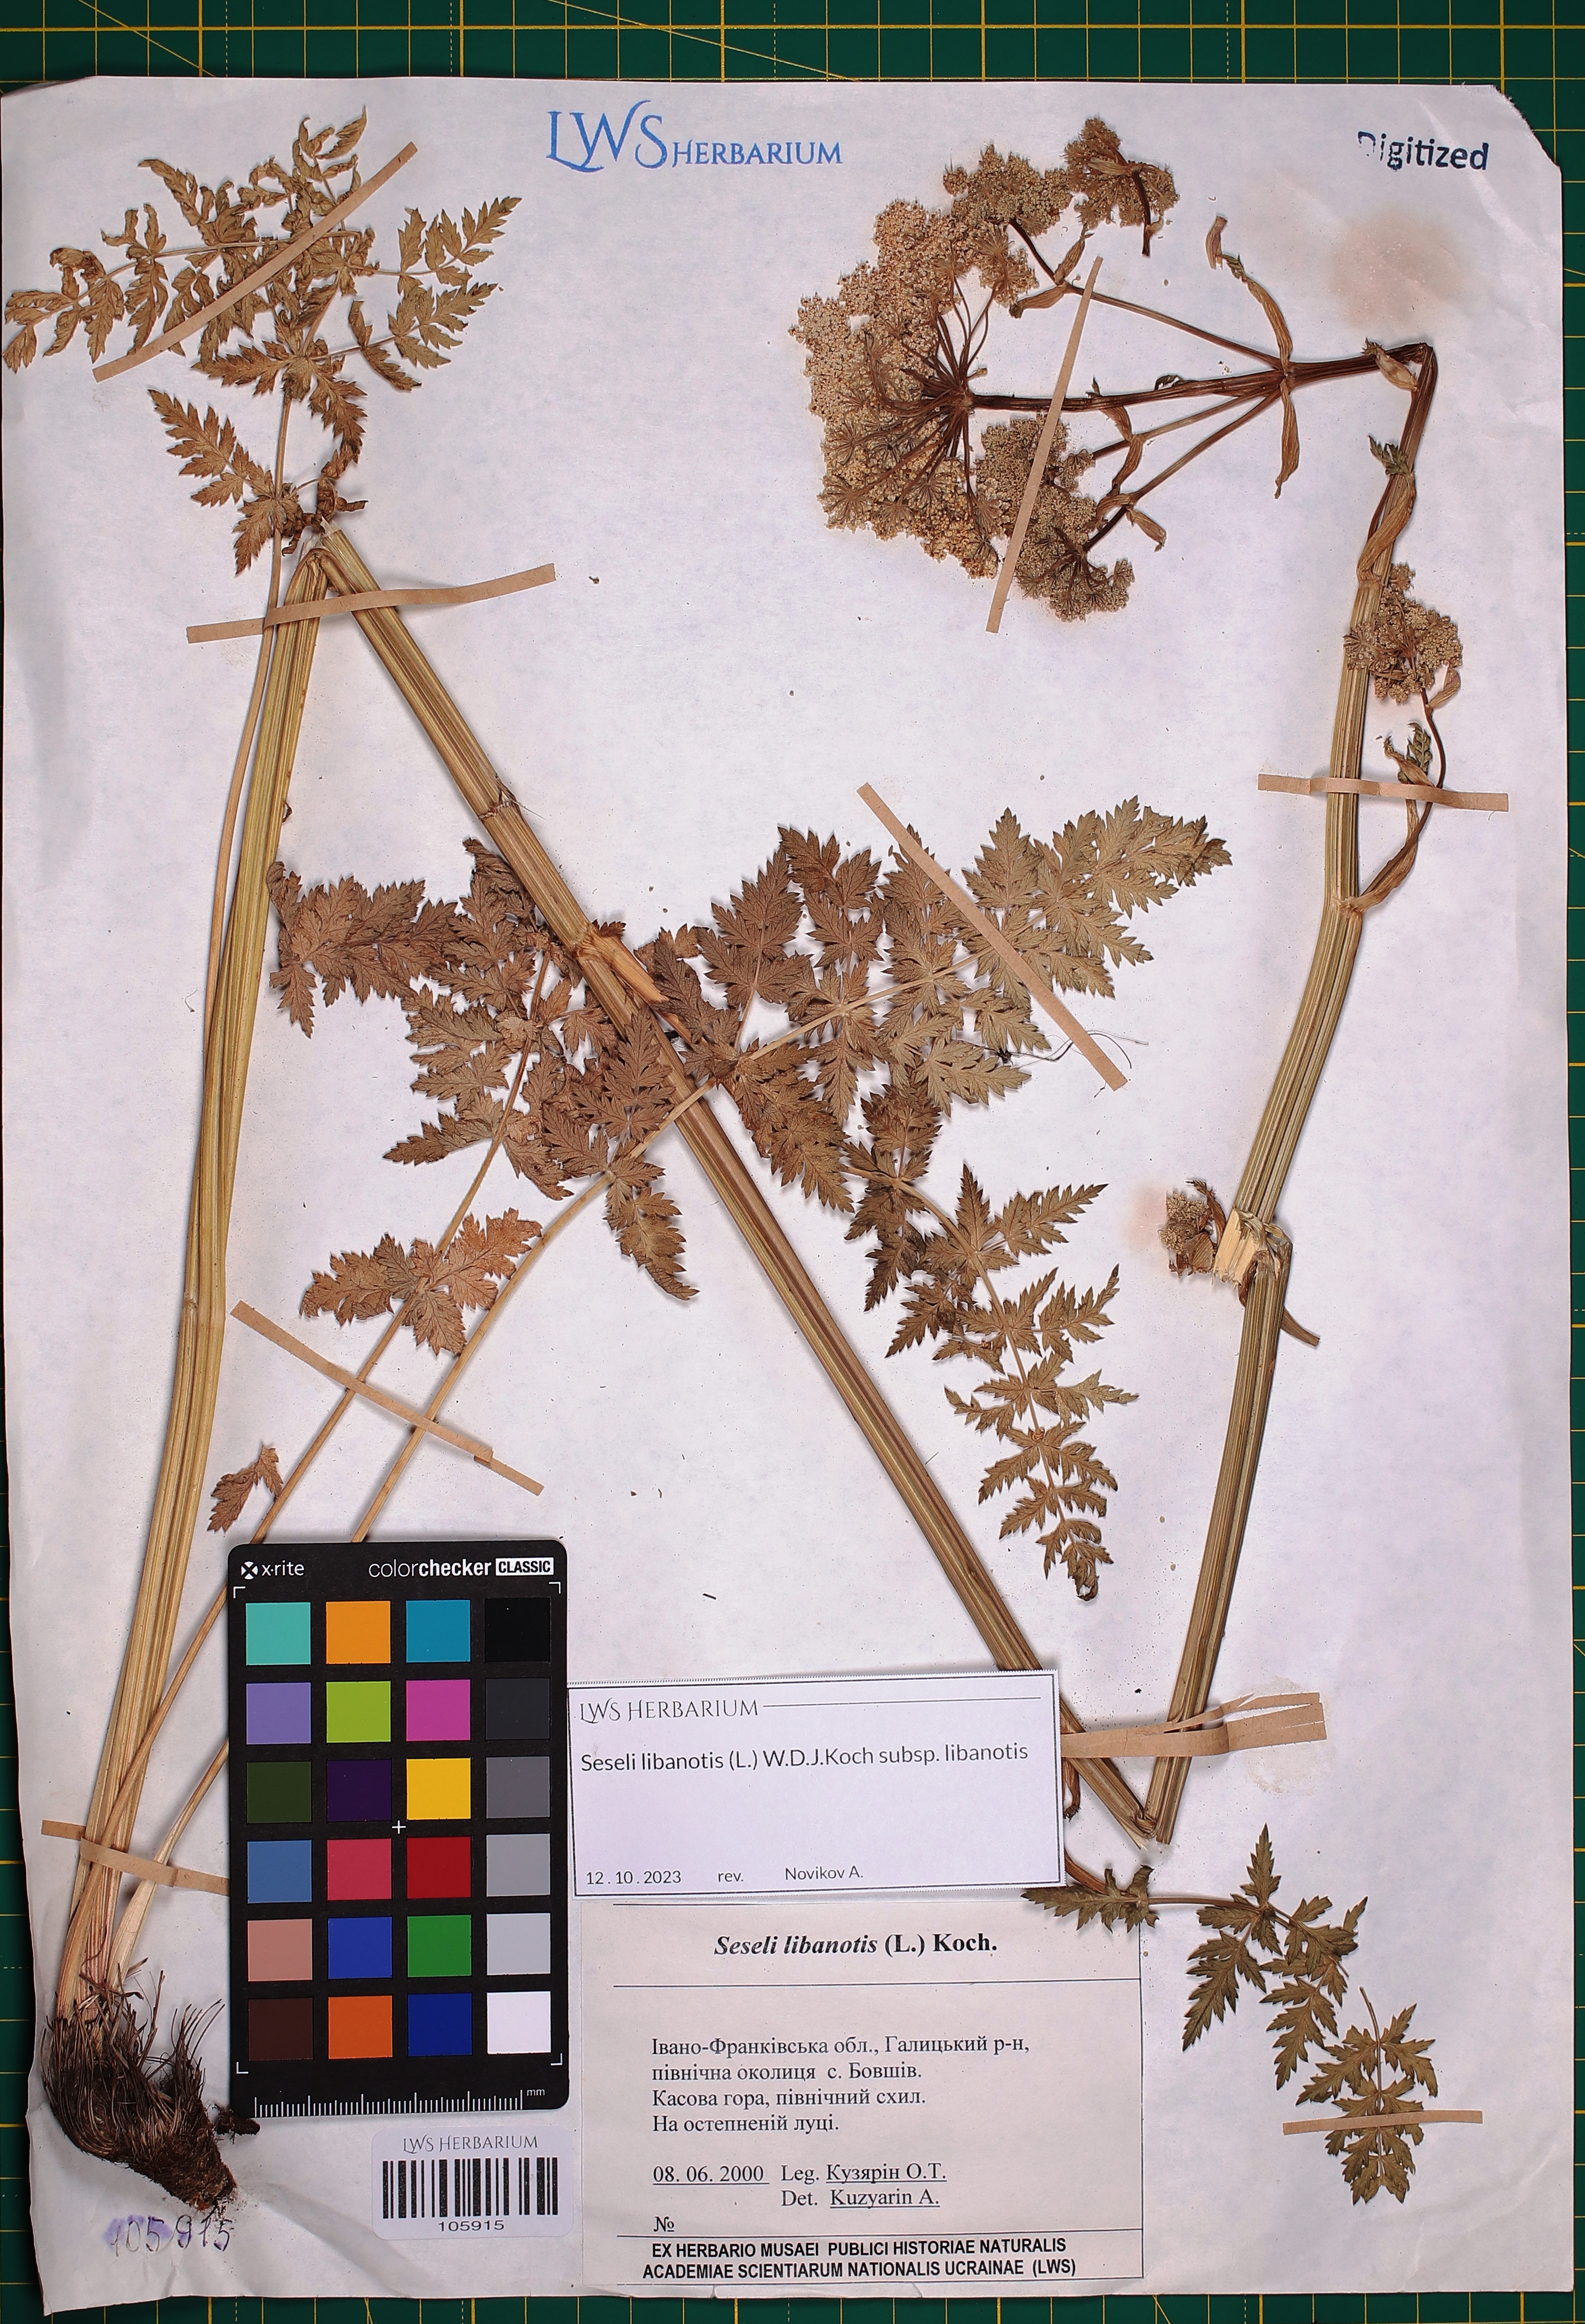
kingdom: Plantae
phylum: Tracheophyta
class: Magnoliopsida
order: Apiales
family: Apiaceae
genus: Seseli
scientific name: Seseli libanotis
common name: Mooncarrot
